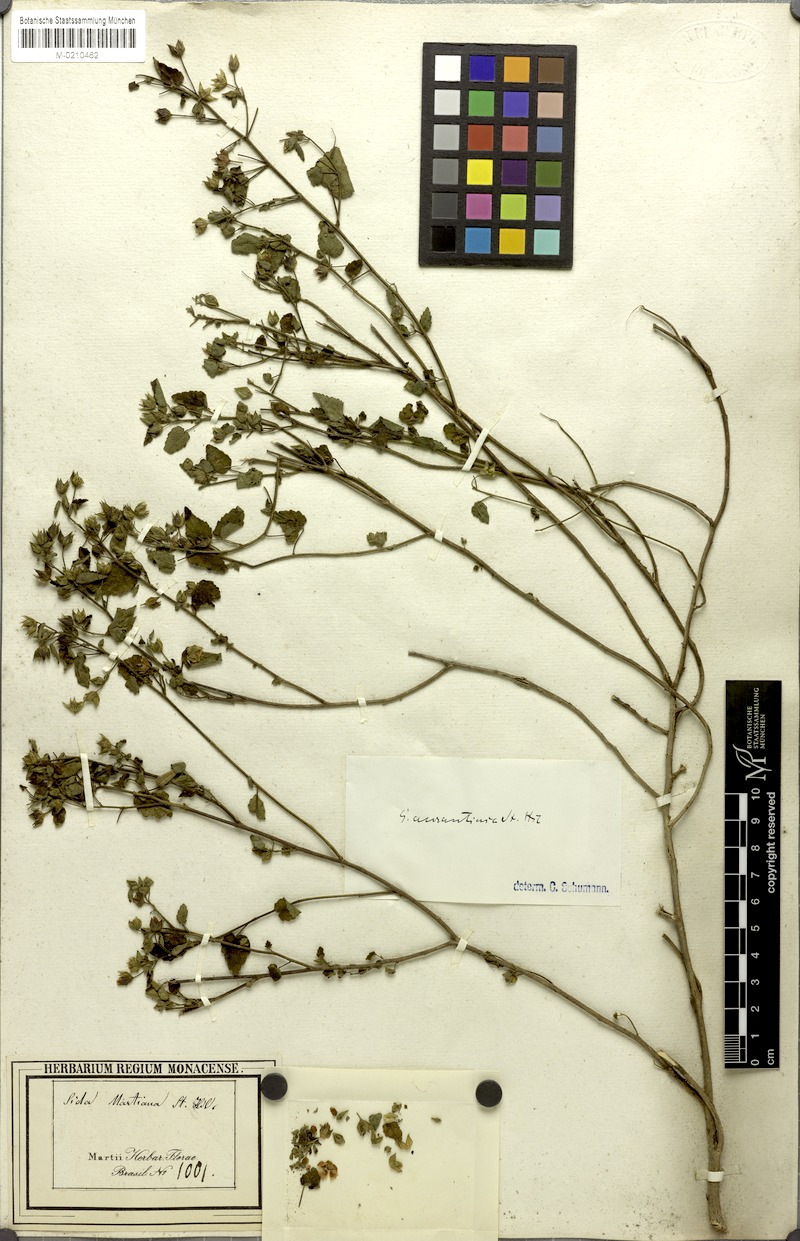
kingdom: Plantae
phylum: Tracheophyta
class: Magnoliopsida
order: Malvales
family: Malvaceae
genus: Sida
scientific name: Sida martiana
